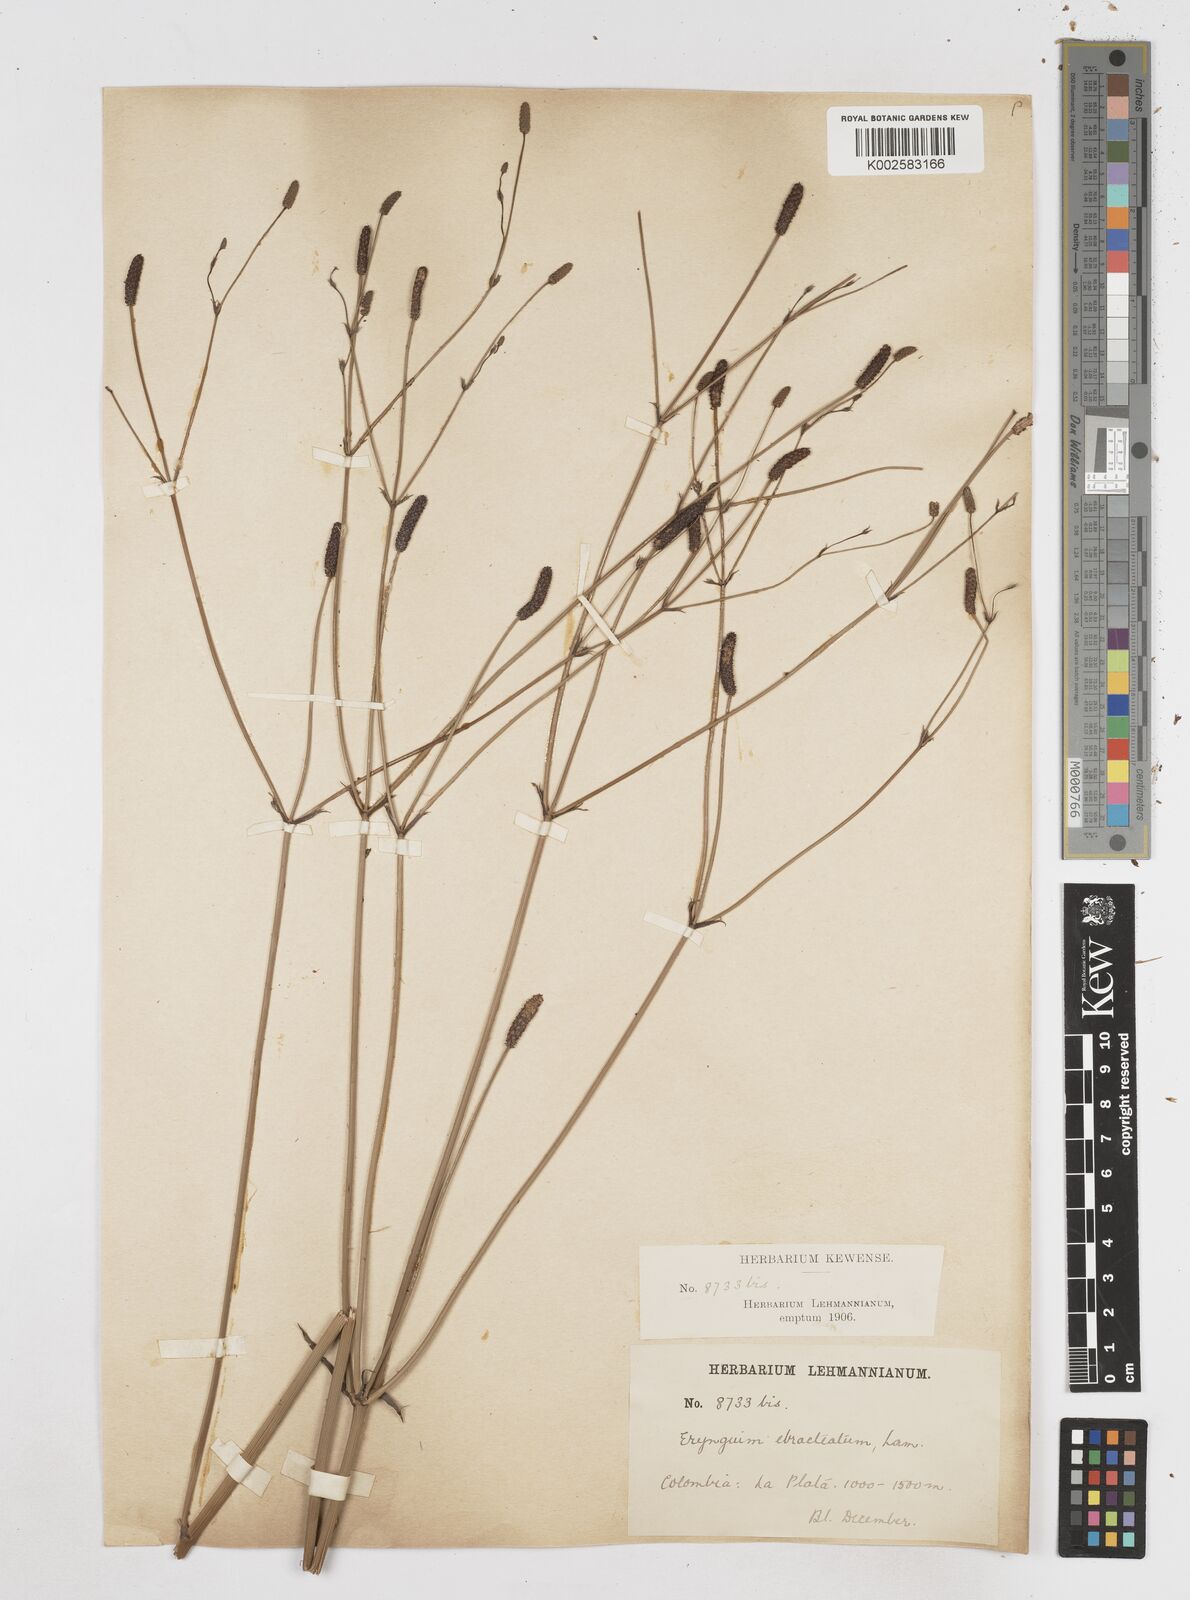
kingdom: Plantae
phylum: Tracheophyta
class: Magnoliopsida
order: Apiales
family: Apiaceae
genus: Eryngium
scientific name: Eryngium ebracteatum
